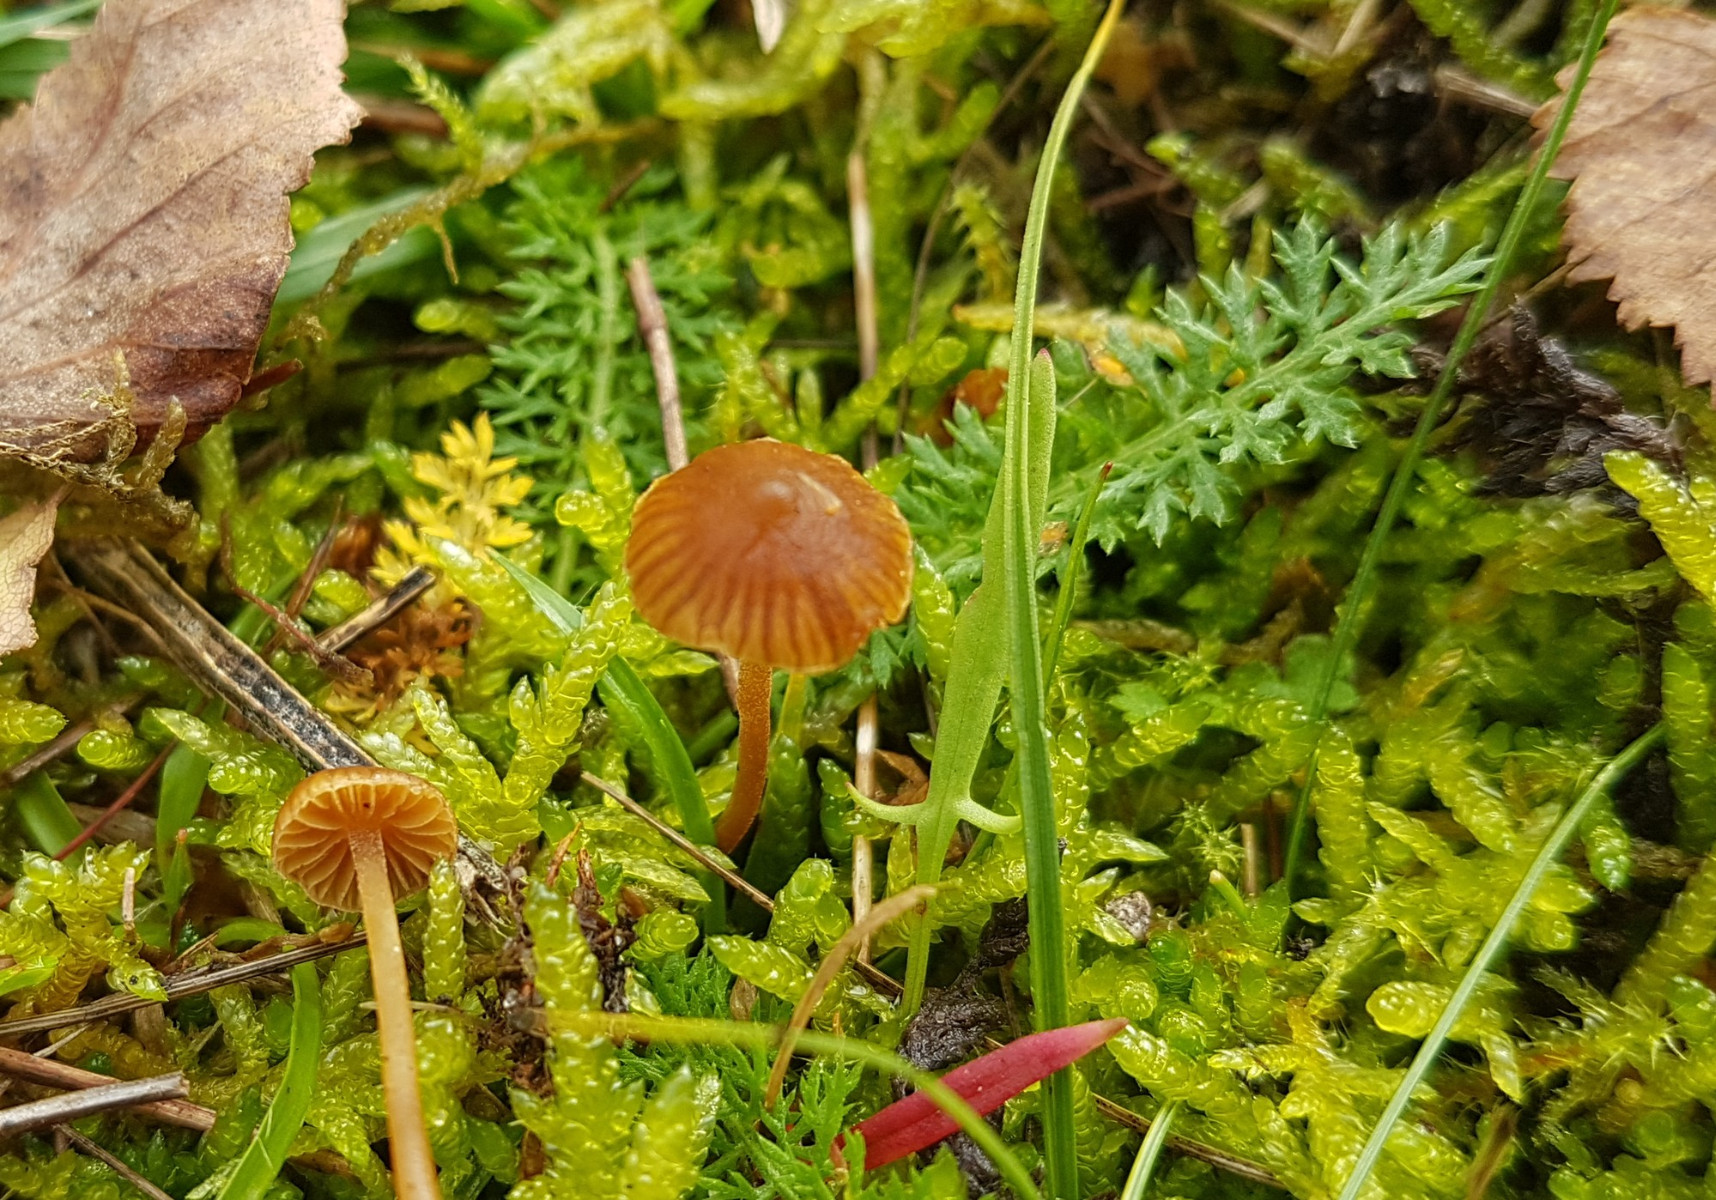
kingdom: Fungi
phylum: Basidiomycota
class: Agaricomycetes
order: Agaricales
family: Hymenogastraceae
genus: Galerina
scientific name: Galerina
